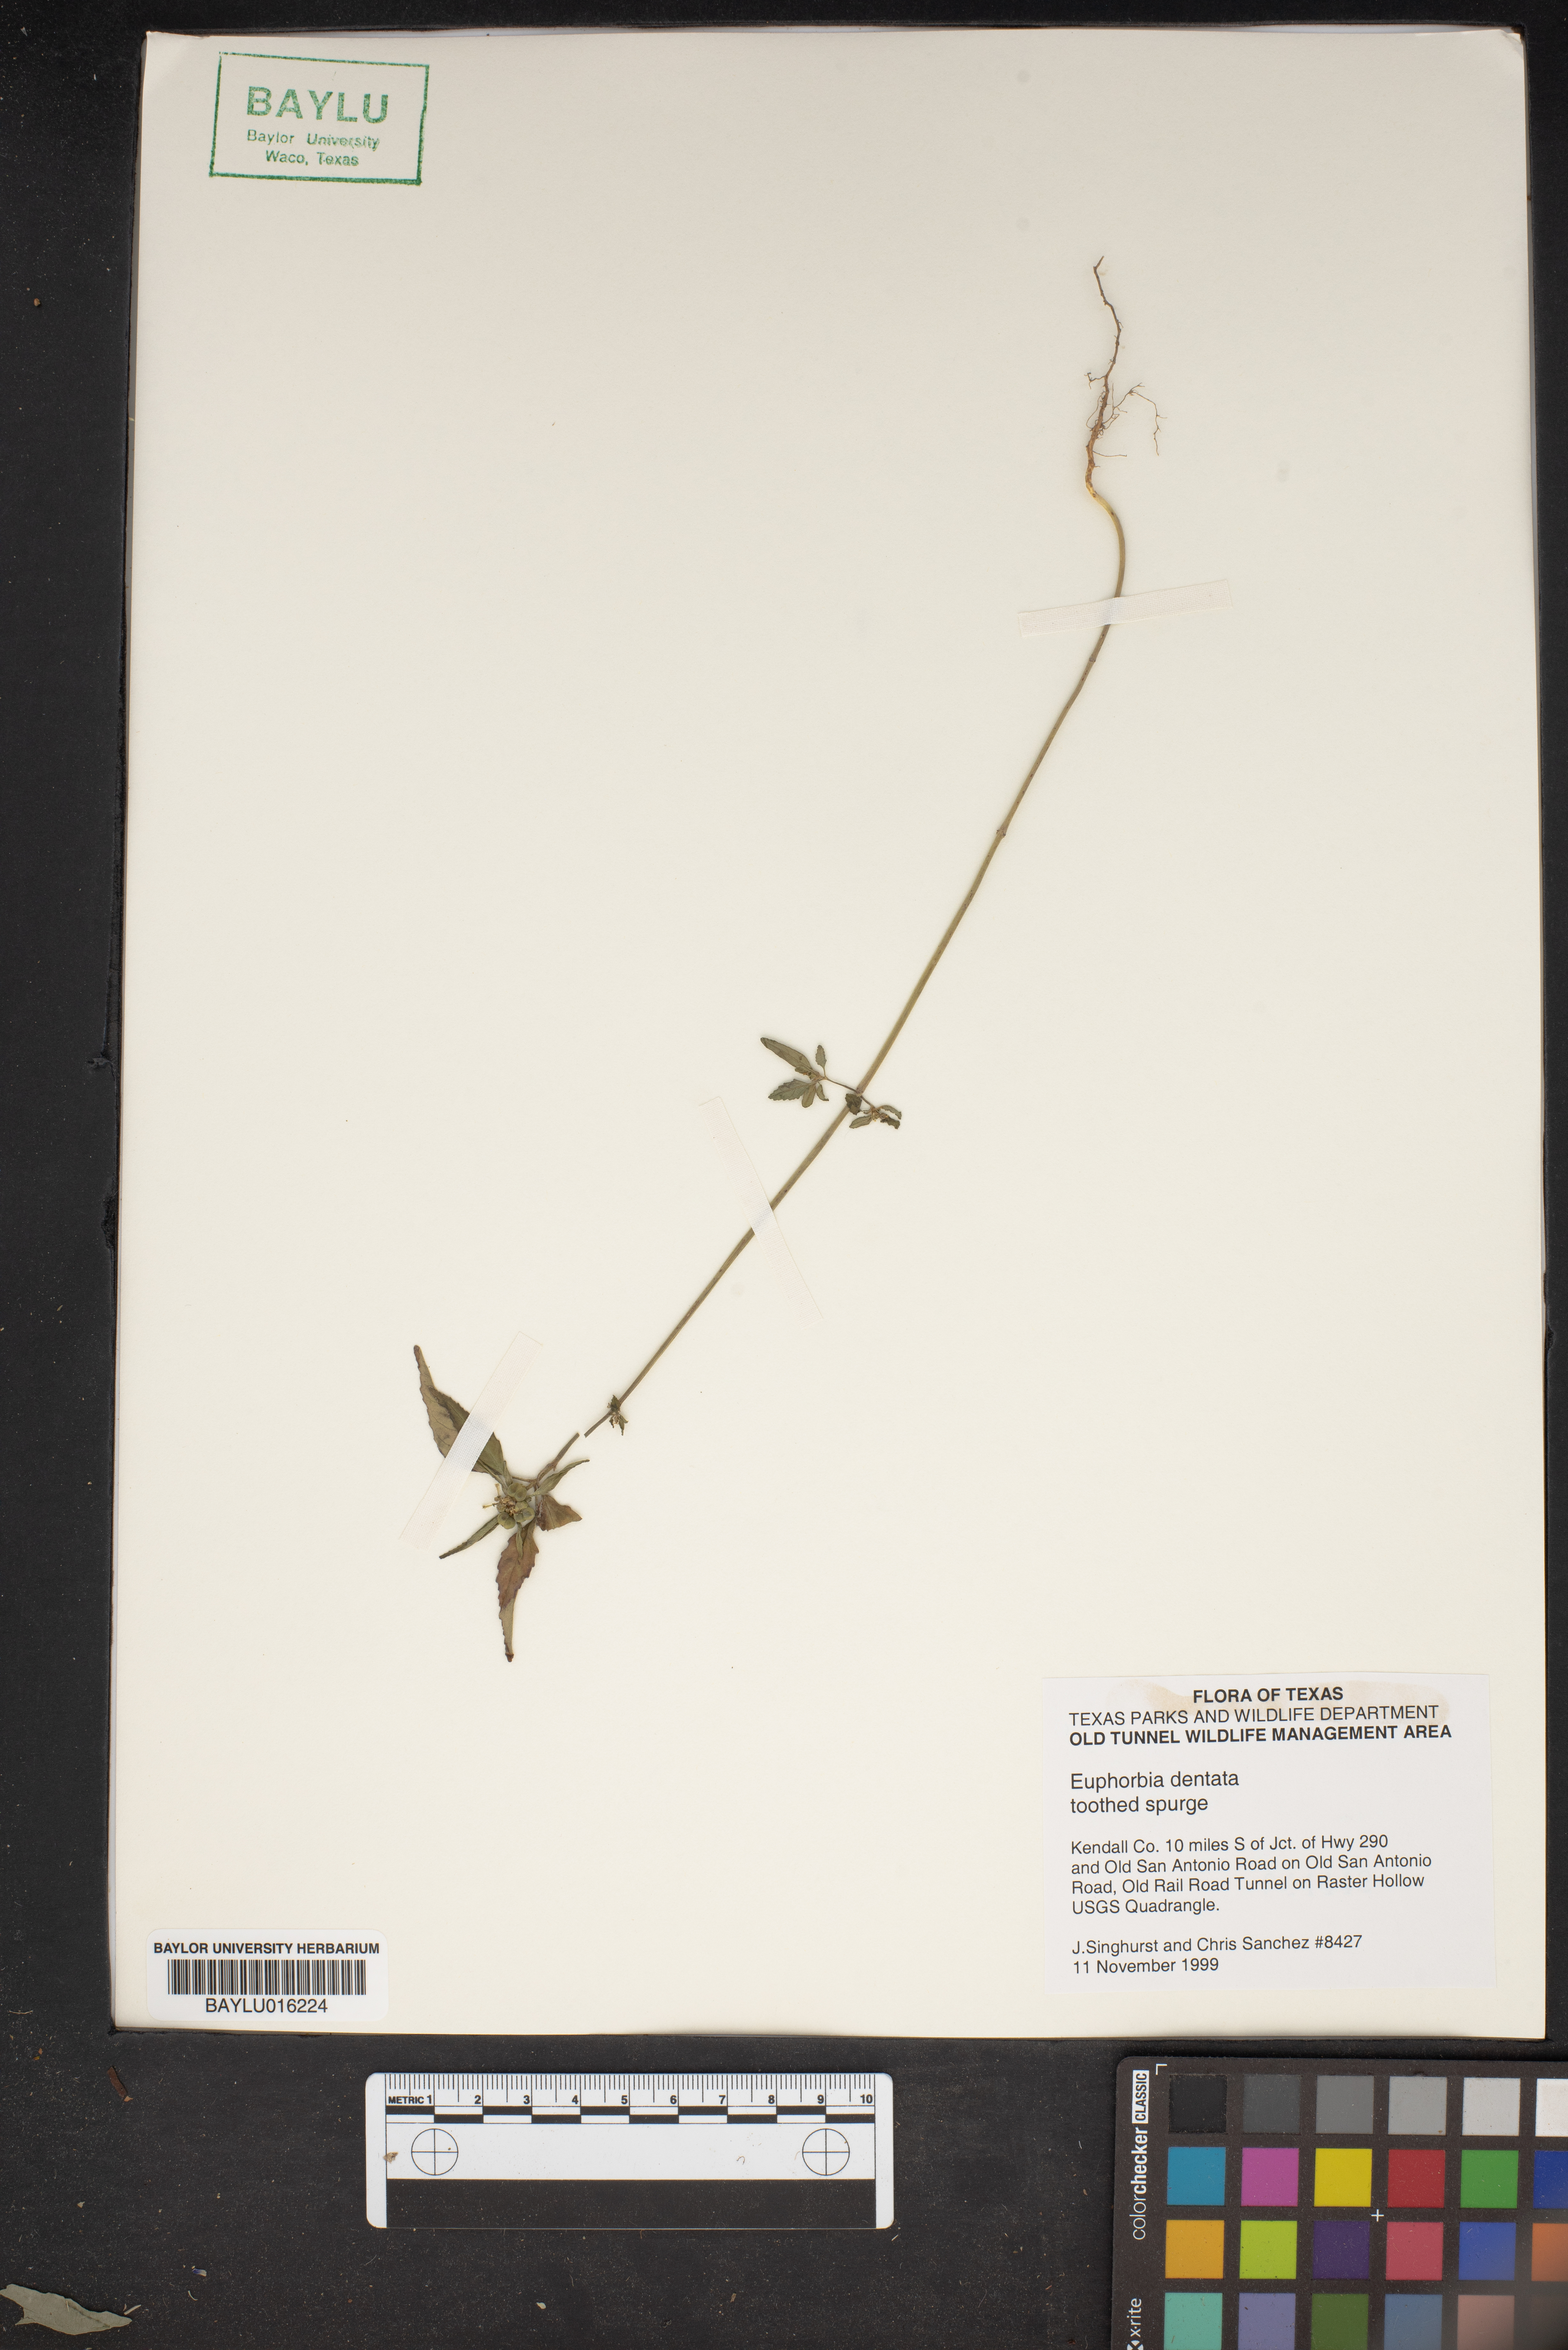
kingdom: Plantae
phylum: Tracheophyta
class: Magnoliopsida
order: Malpighiales
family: Euphorbiaceae
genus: Euphorbia
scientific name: Euphorbia dentata
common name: Dentate spurge
